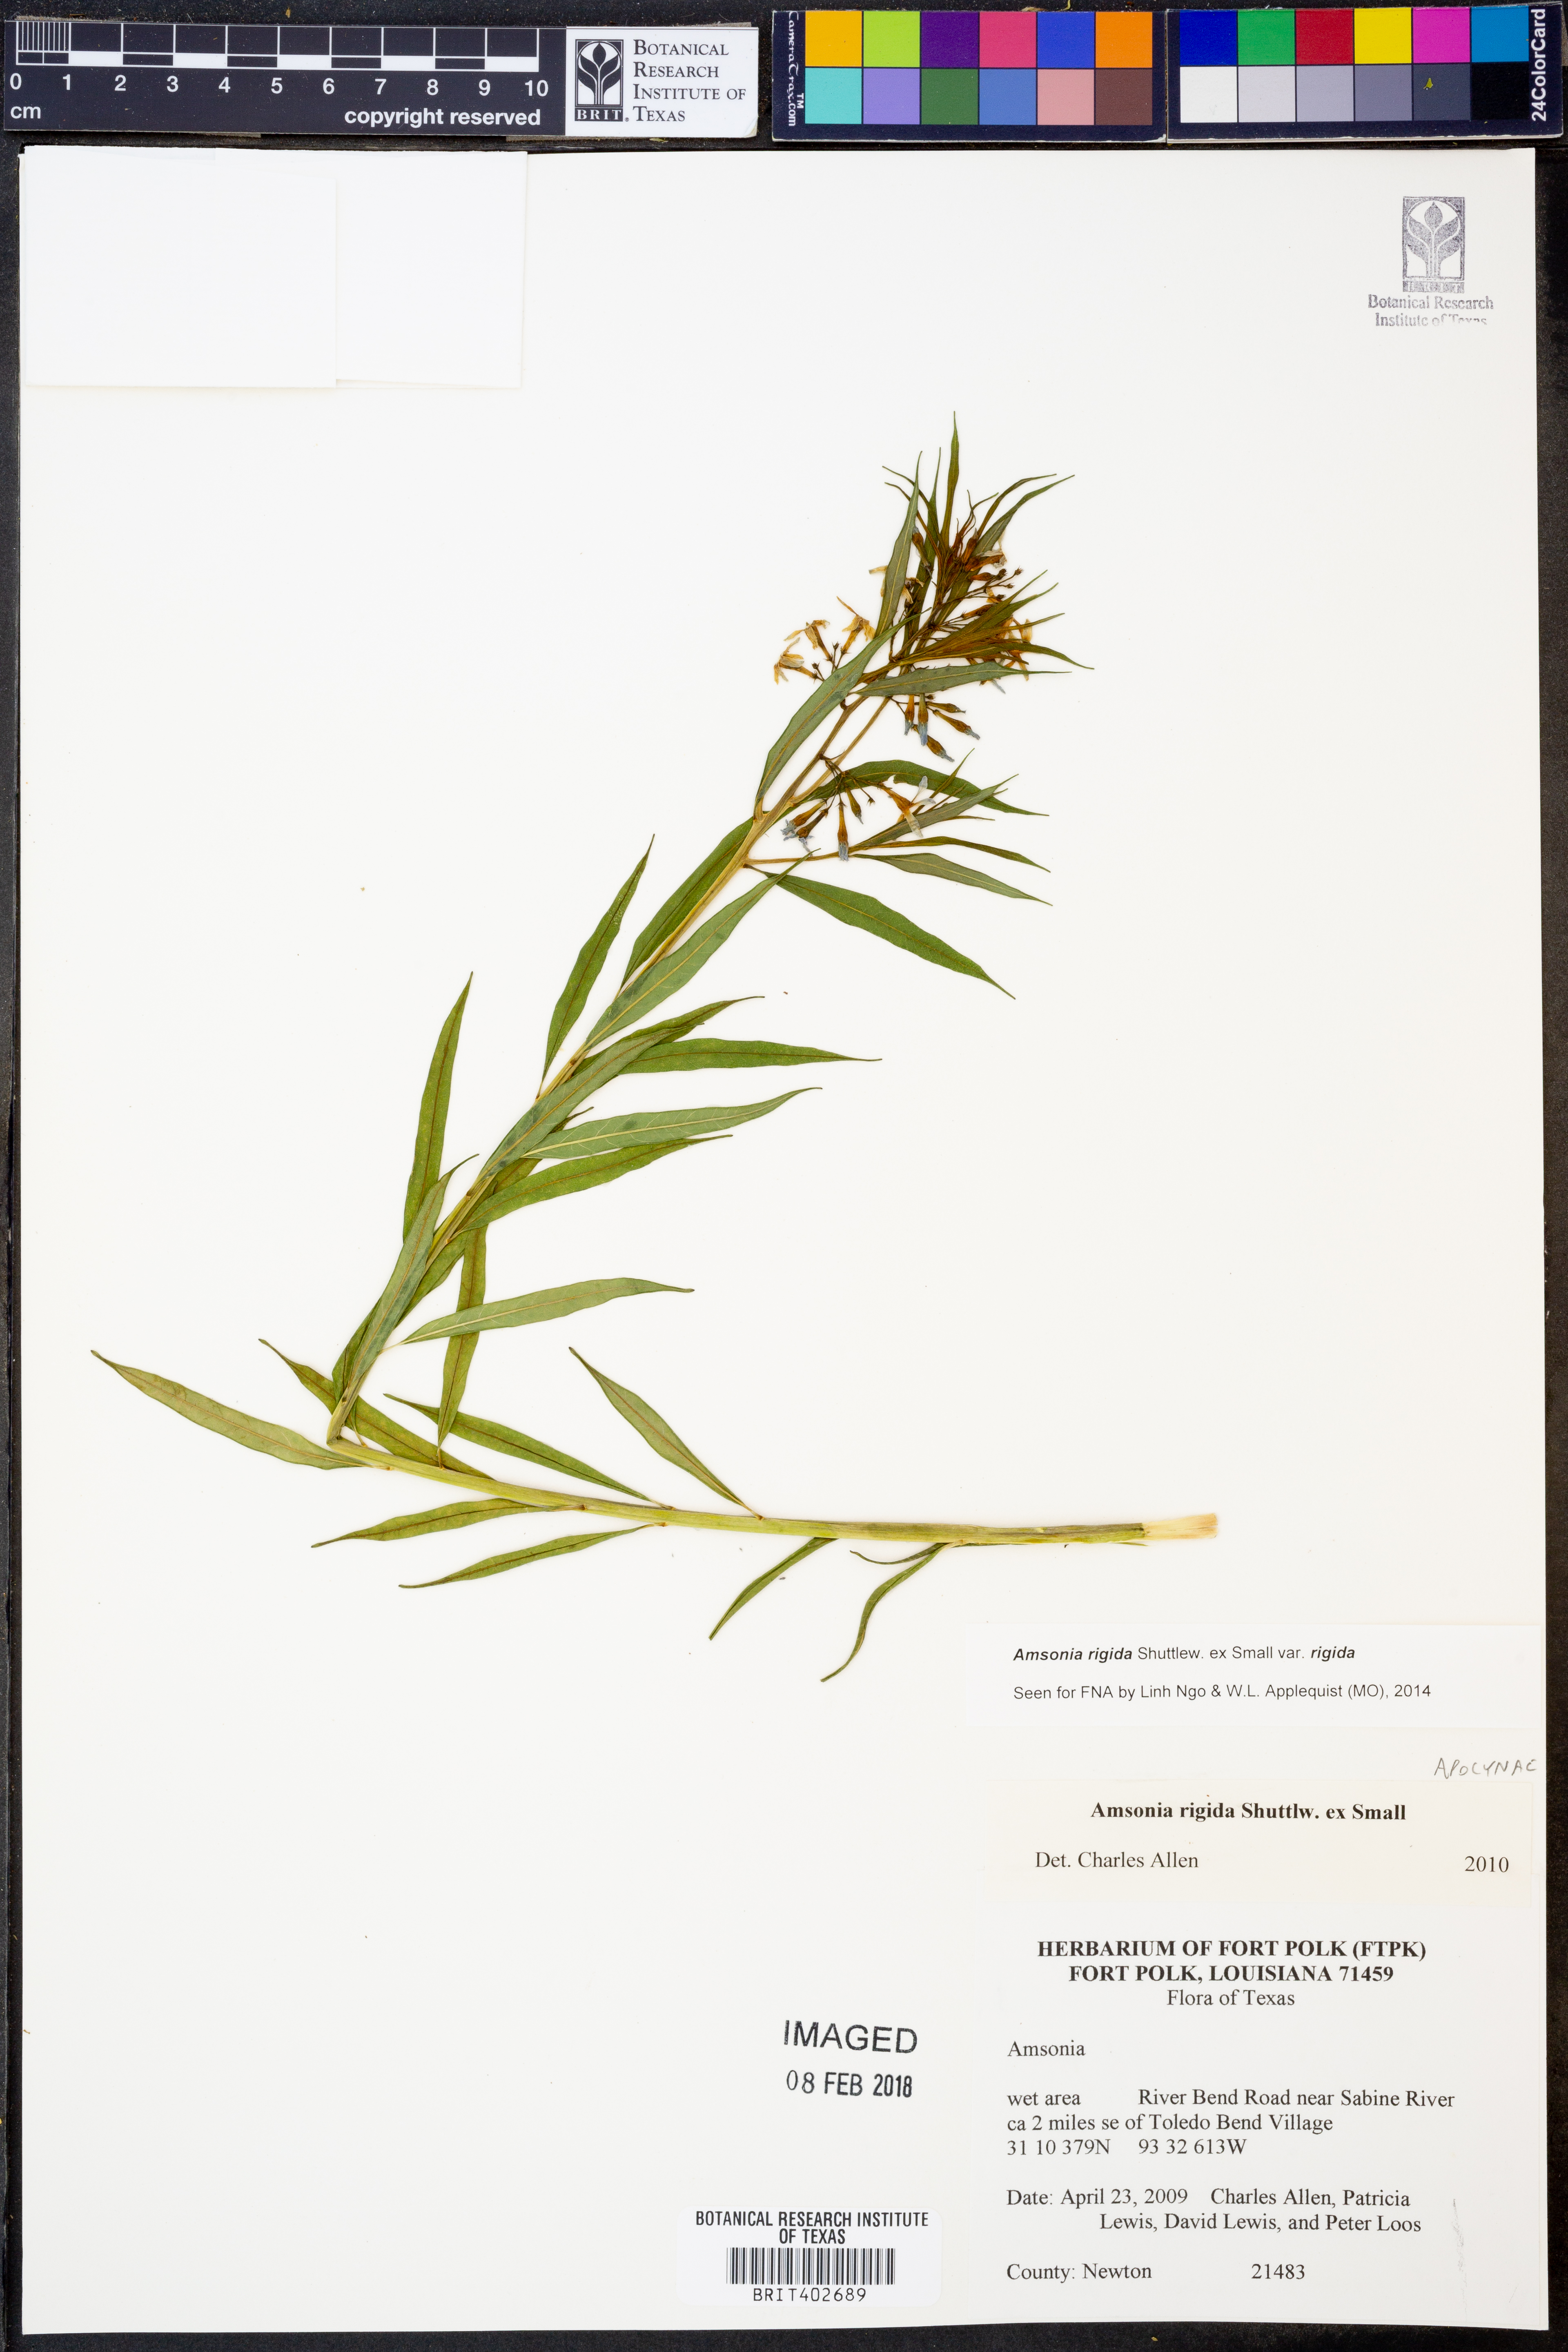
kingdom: Plantae
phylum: Tracheophyta
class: Magnoliopsida
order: Gentianales
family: Apocynaceae
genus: Amsonia
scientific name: Amsonia rigida
